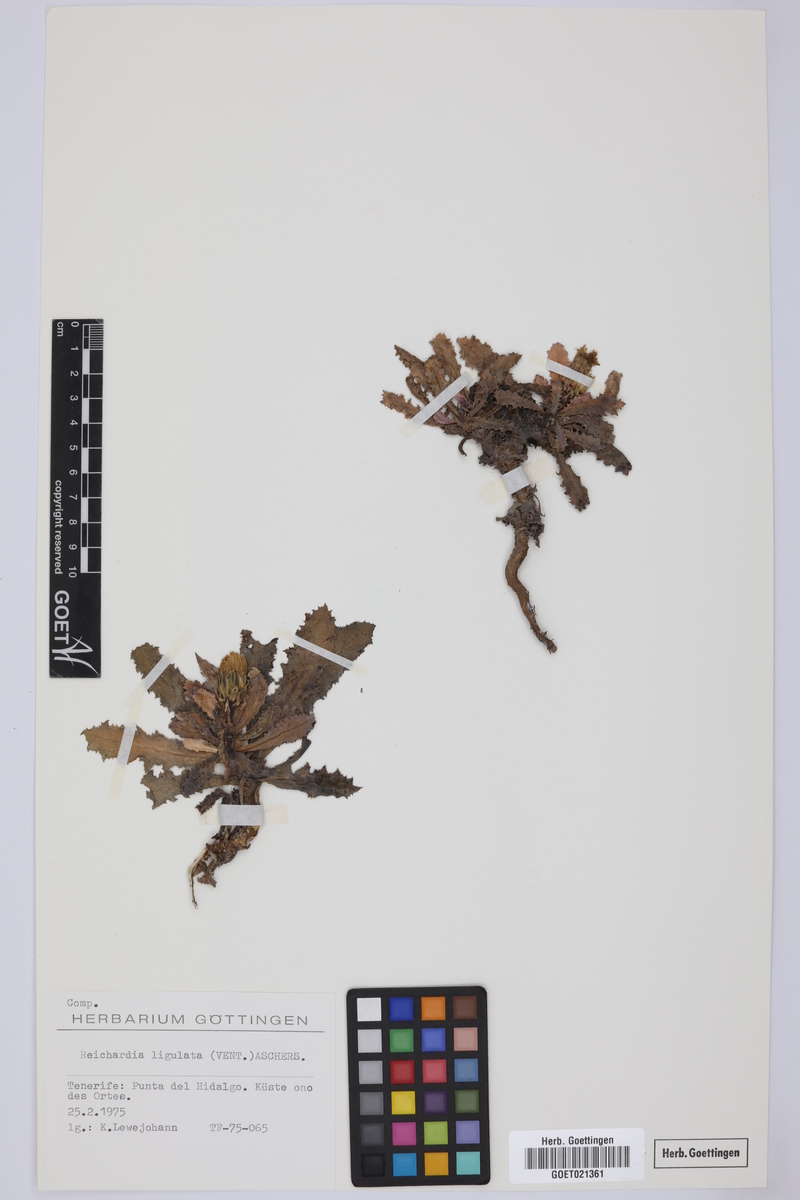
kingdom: Plantae
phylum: Tracheophyta
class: Magnoliopsida
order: Asterales
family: Asteraceae
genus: Reichardia
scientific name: Reichardia ligulata
